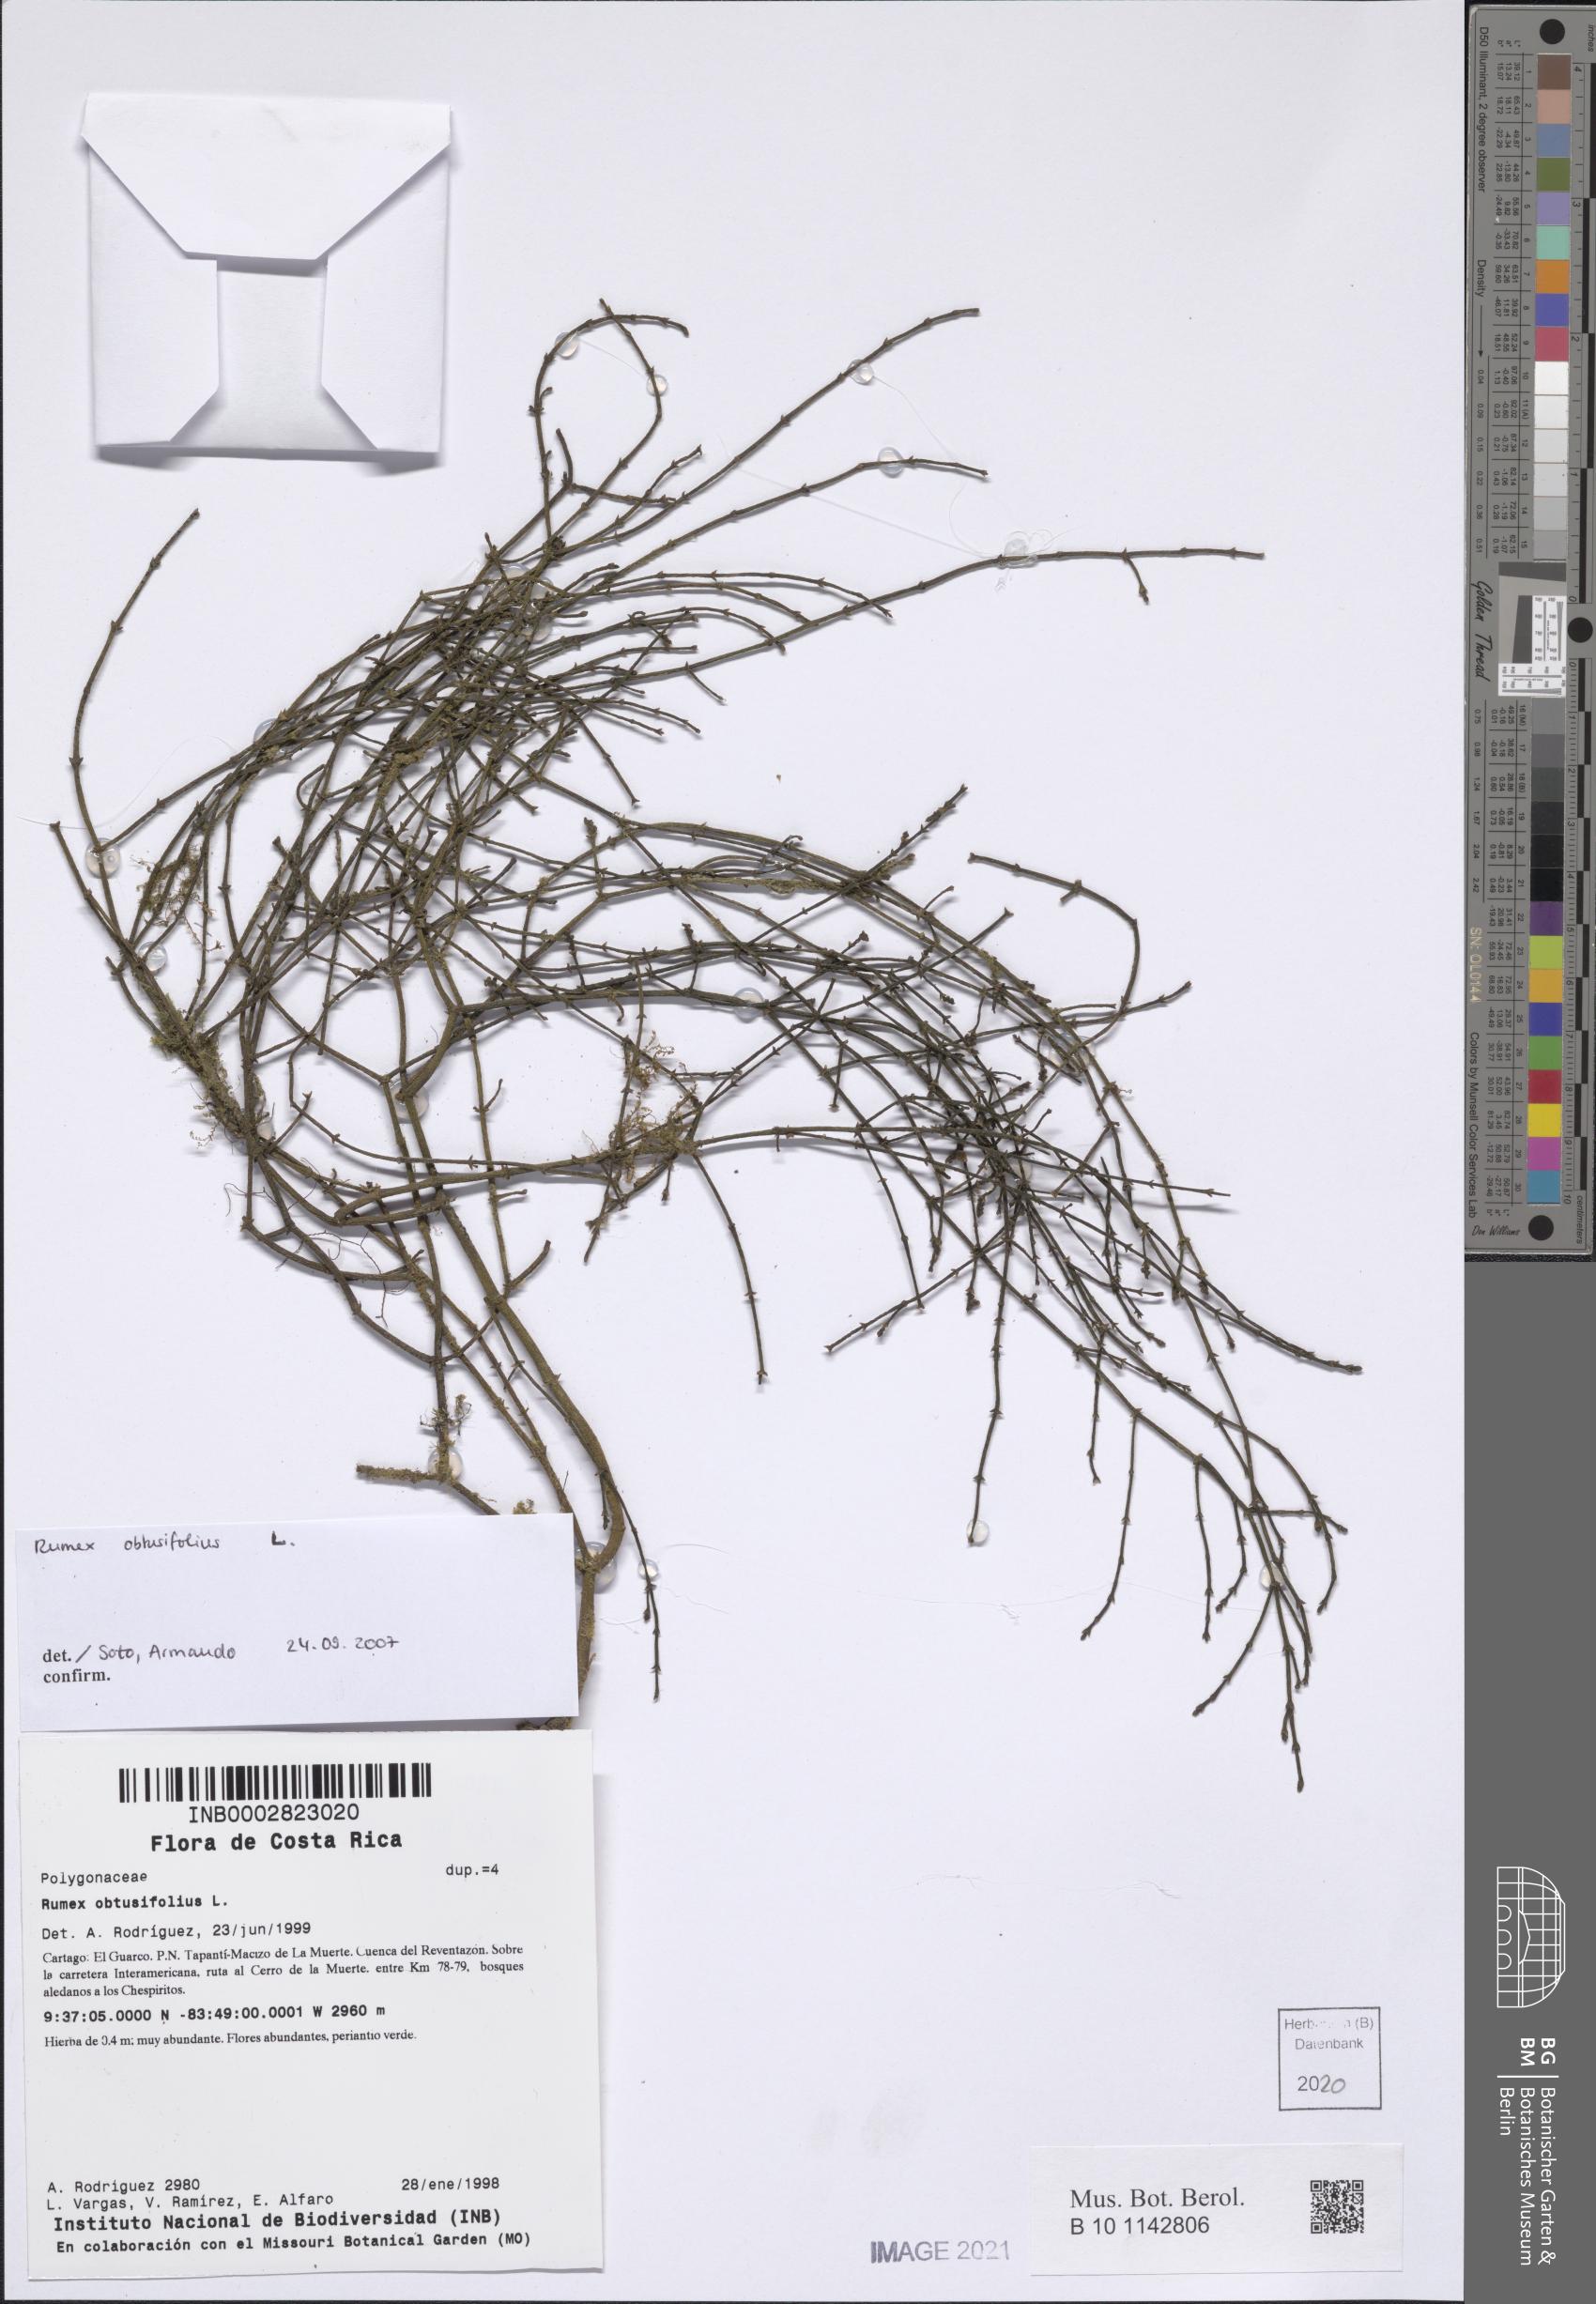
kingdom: Plantae
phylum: Tracheophyta
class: Magnoliopsida
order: Caryophyllales
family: Polygonaceae
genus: Rumex
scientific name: Rumex obtusifolius
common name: Bitter dock
